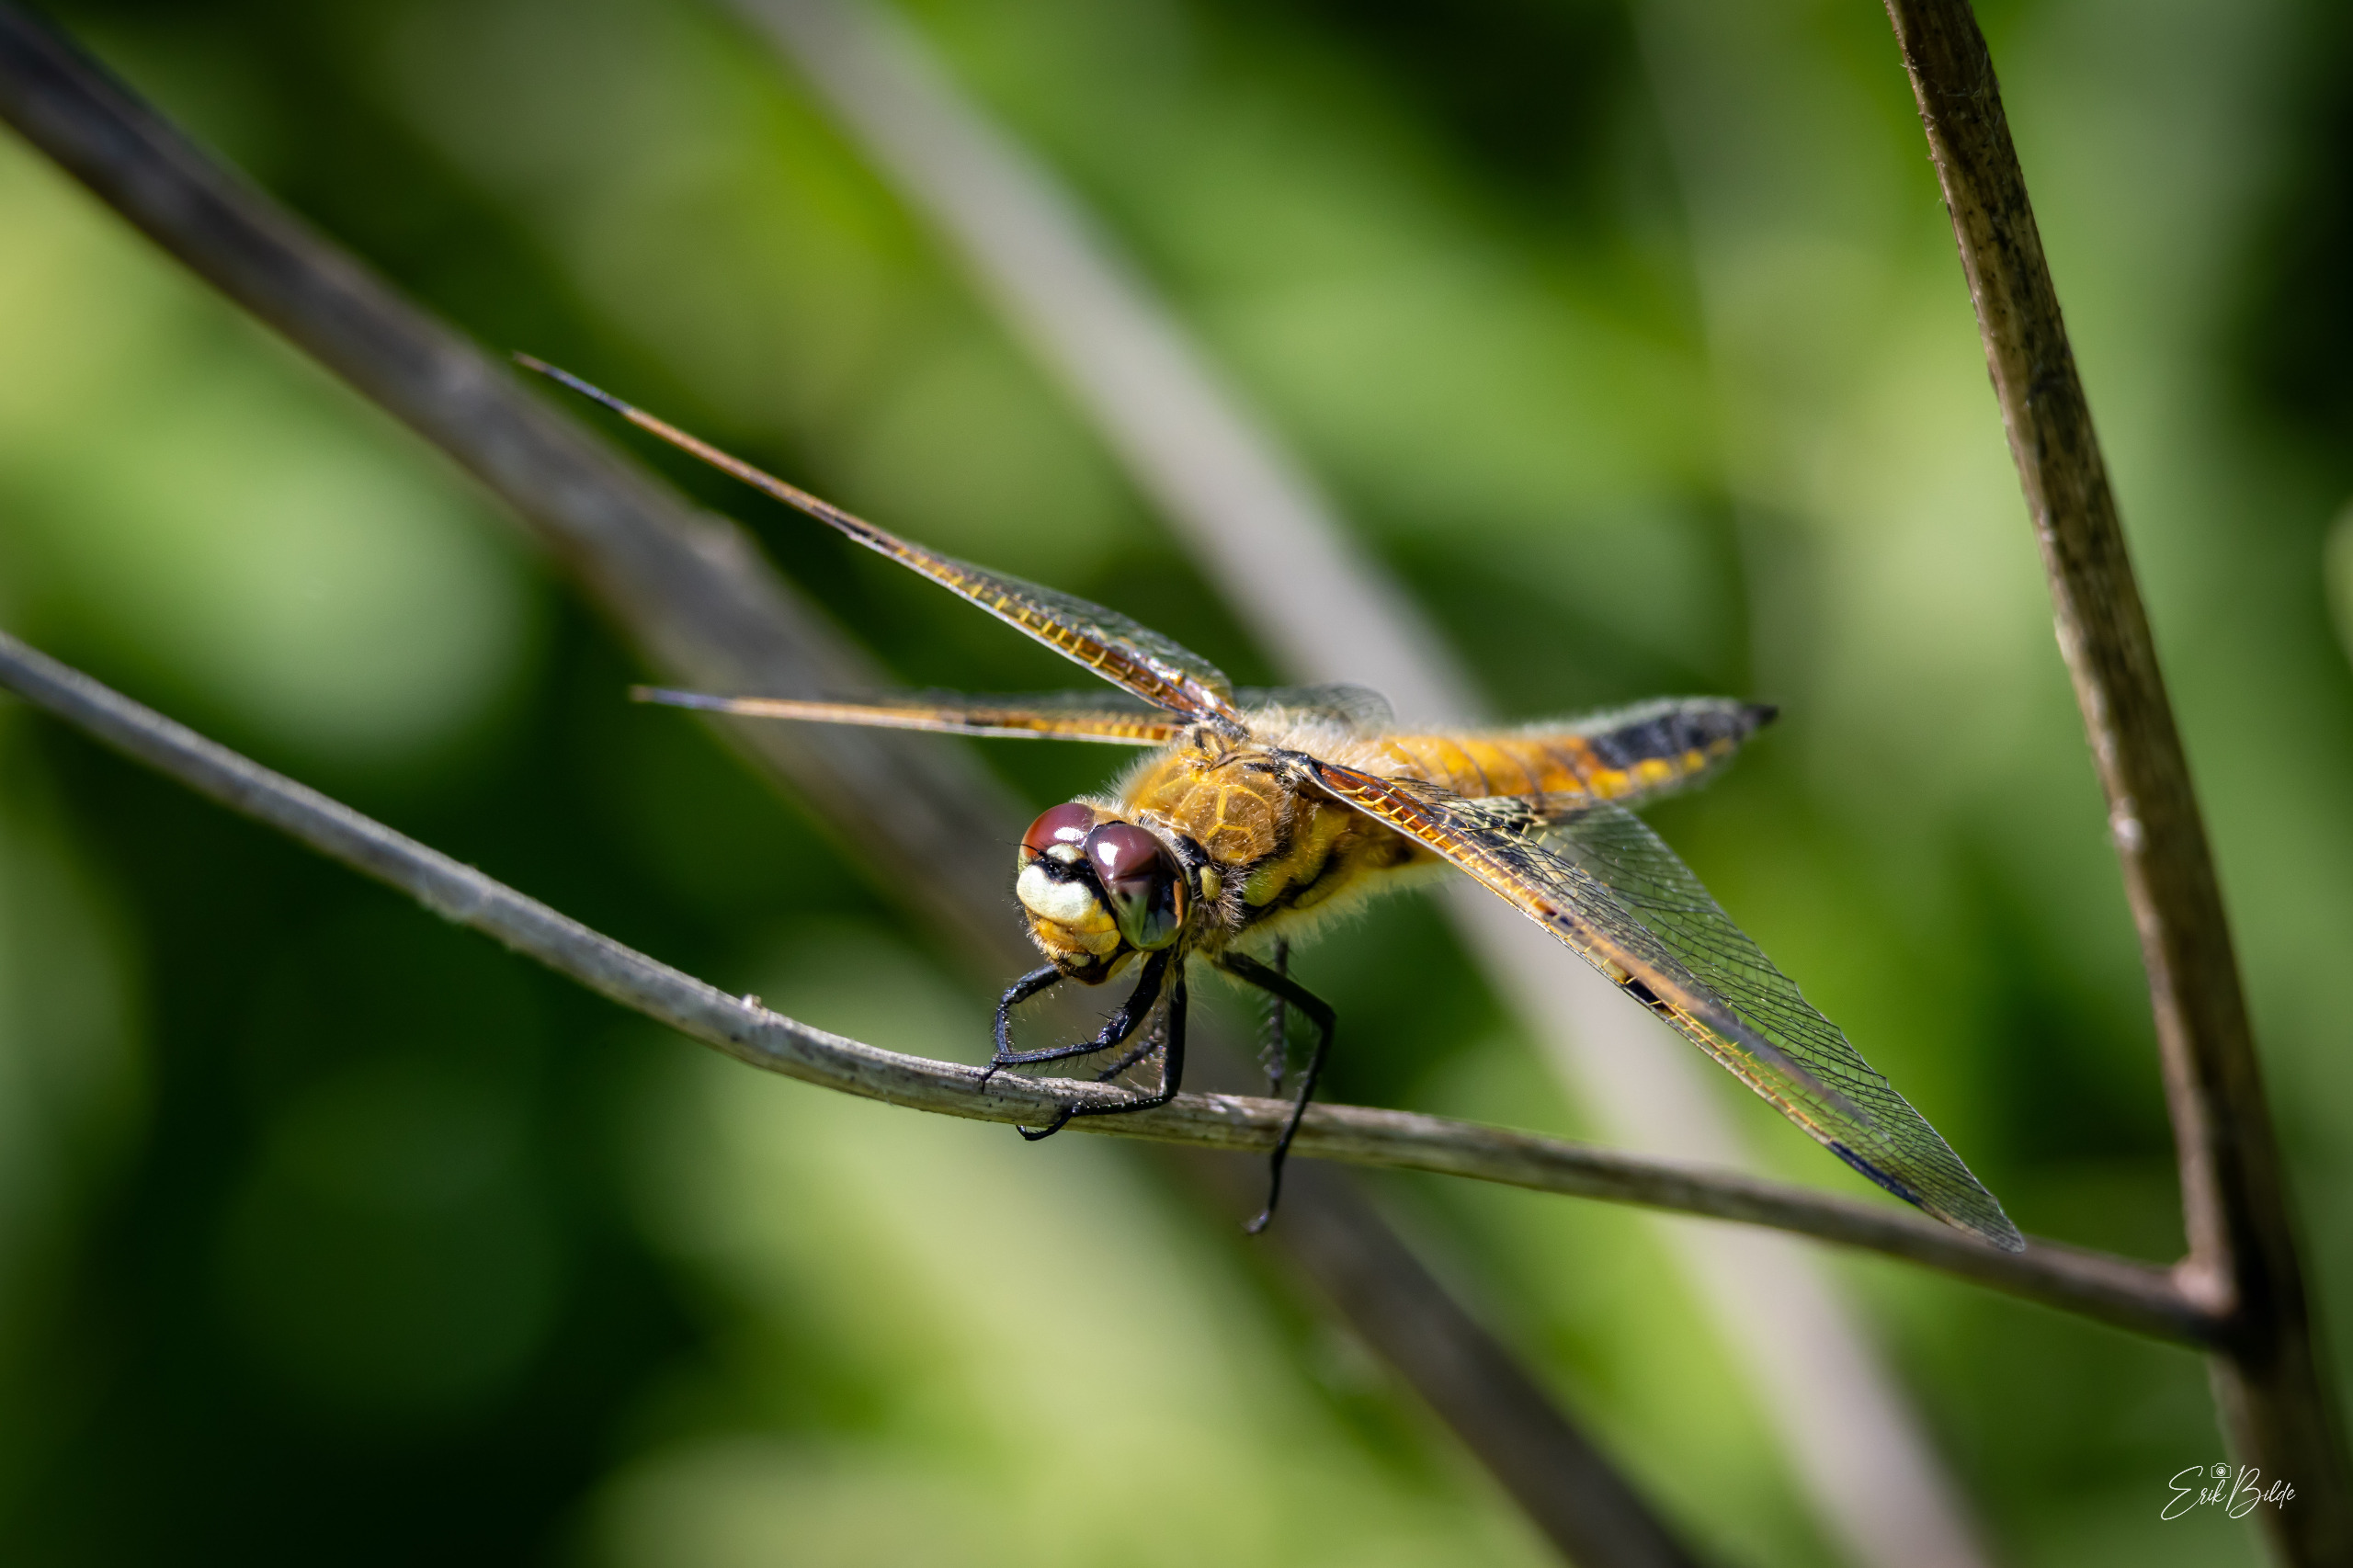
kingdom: Animalia
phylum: Arthropoda
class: Insecta
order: Odonata
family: Libellulidae
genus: Libellula
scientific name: Libellula quadrimaculata
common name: Fireplettet libel
